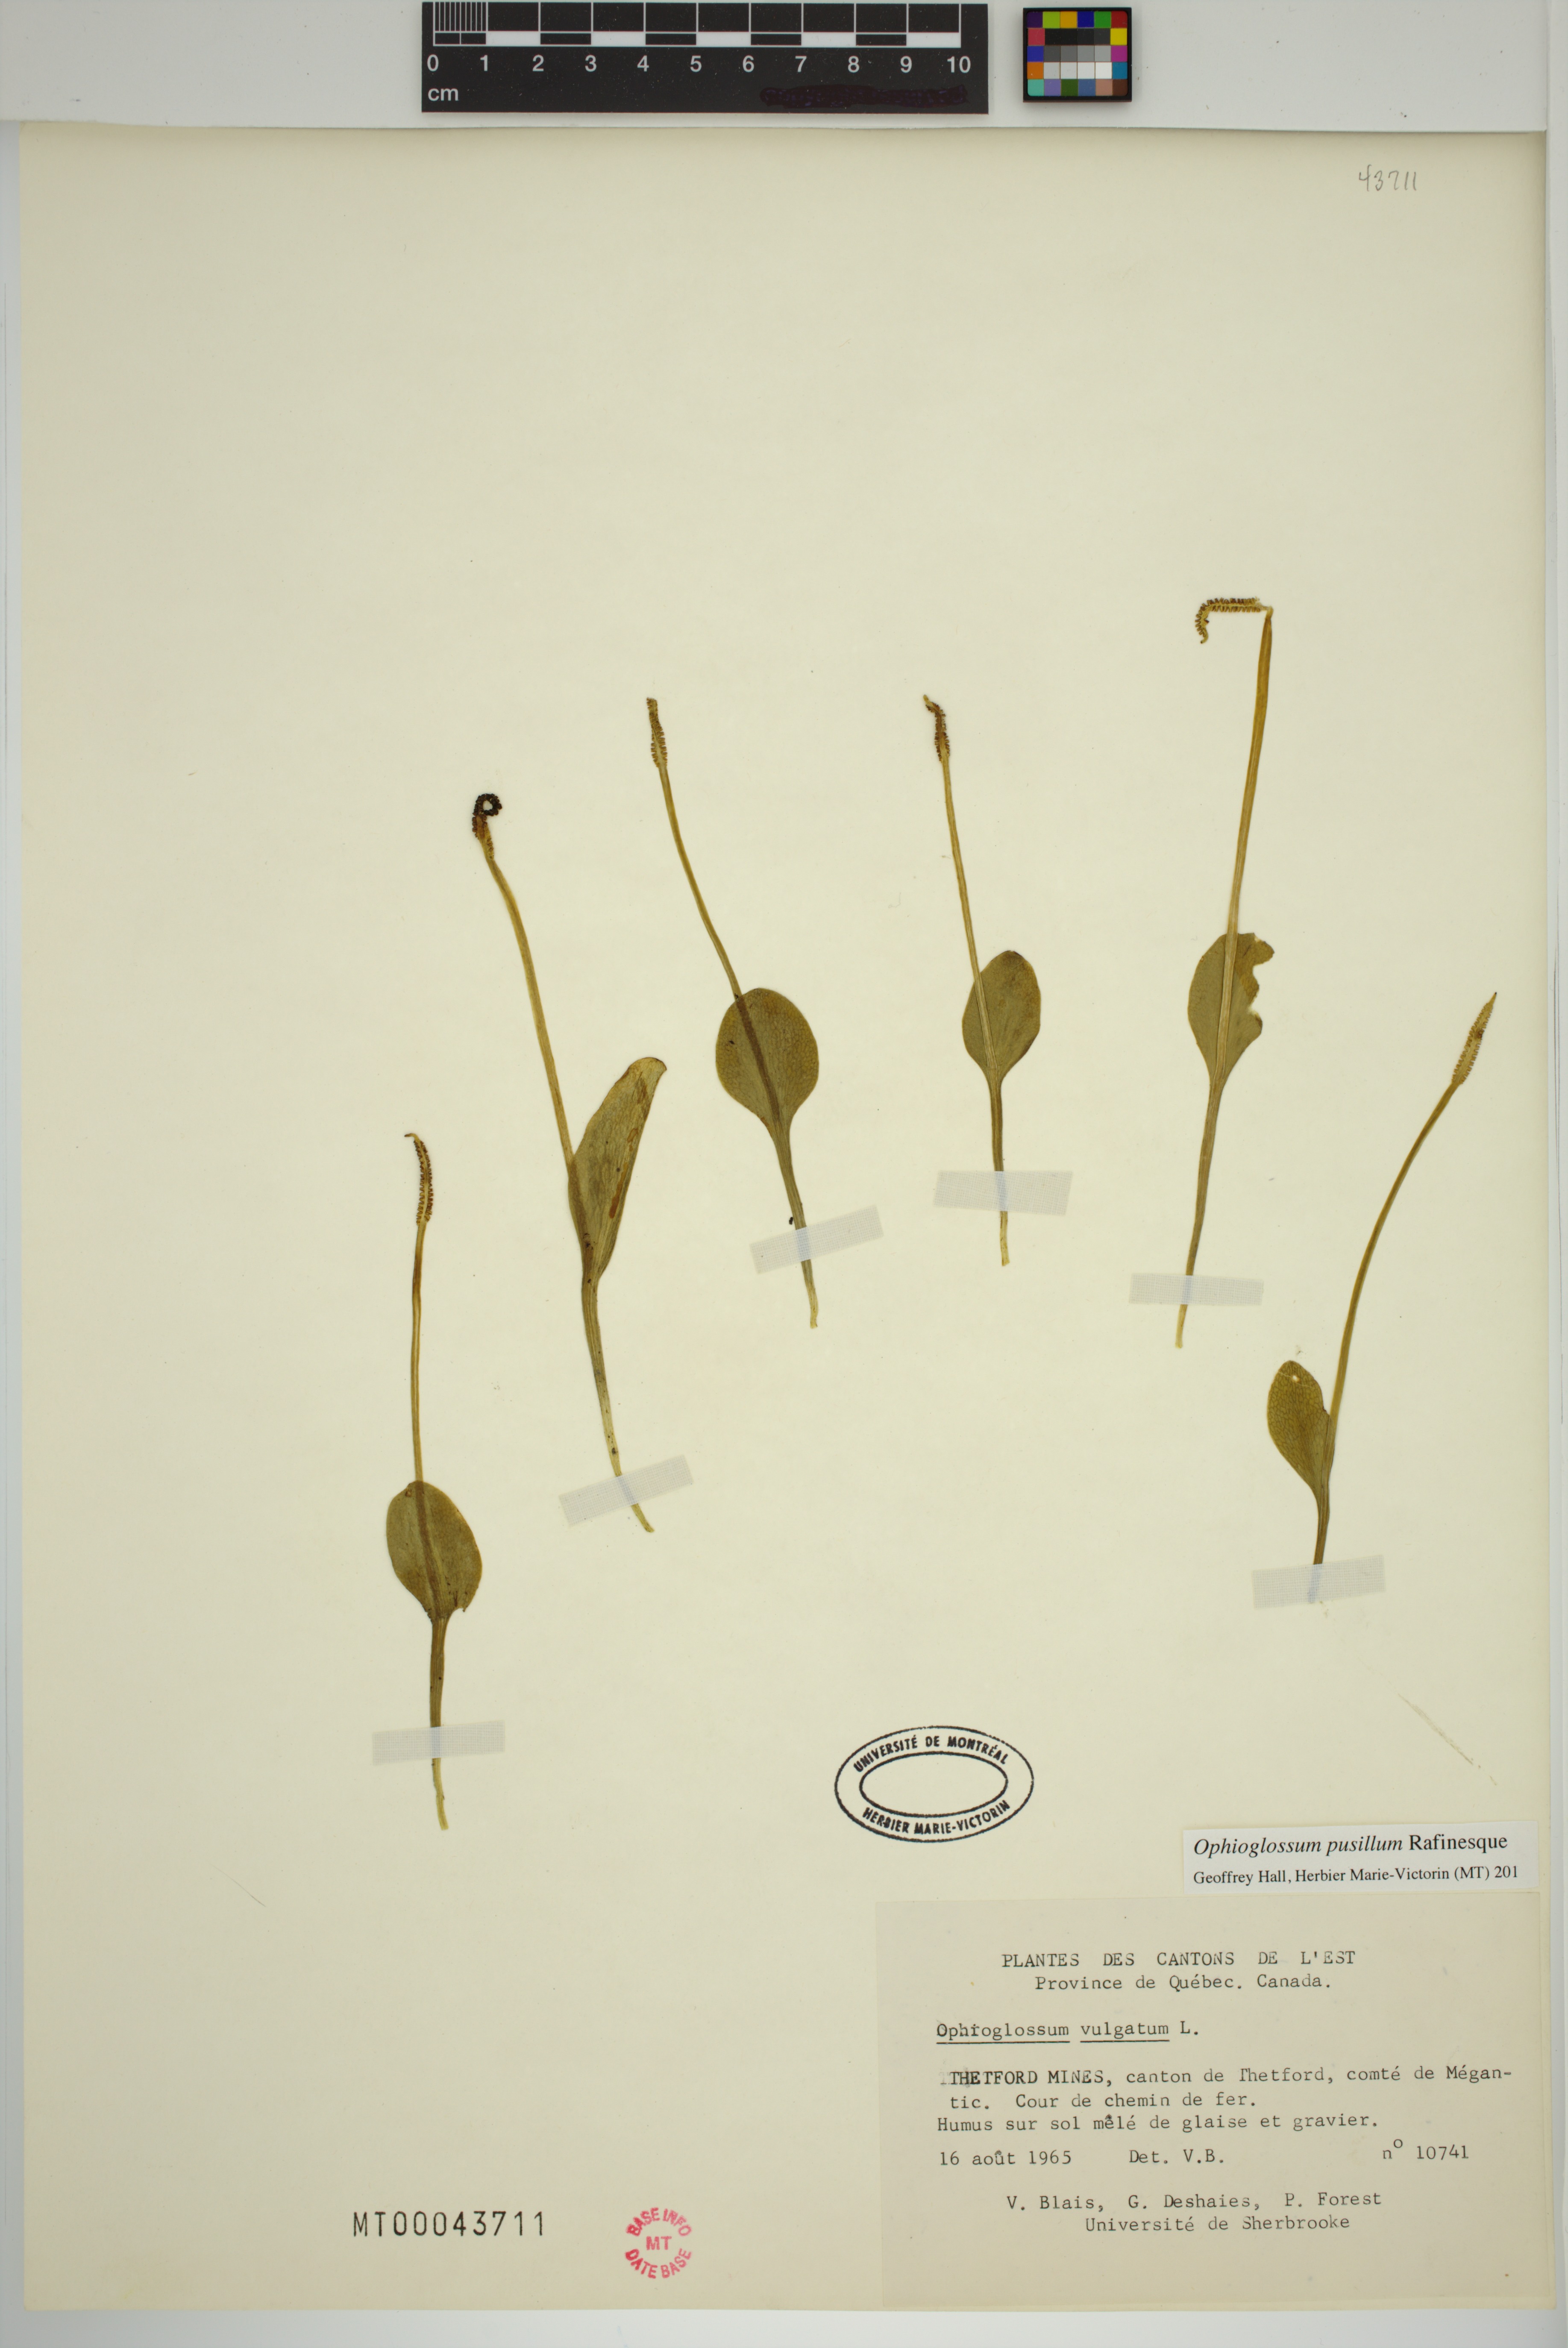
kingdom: Plantae
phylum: Tracheophyta
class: Polypodiopsida
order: Ophioglossales
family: Ophioglossaceae
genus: Ophioglossum
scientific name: Ophioglossum pusillum
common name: Northern adder's-tongue
